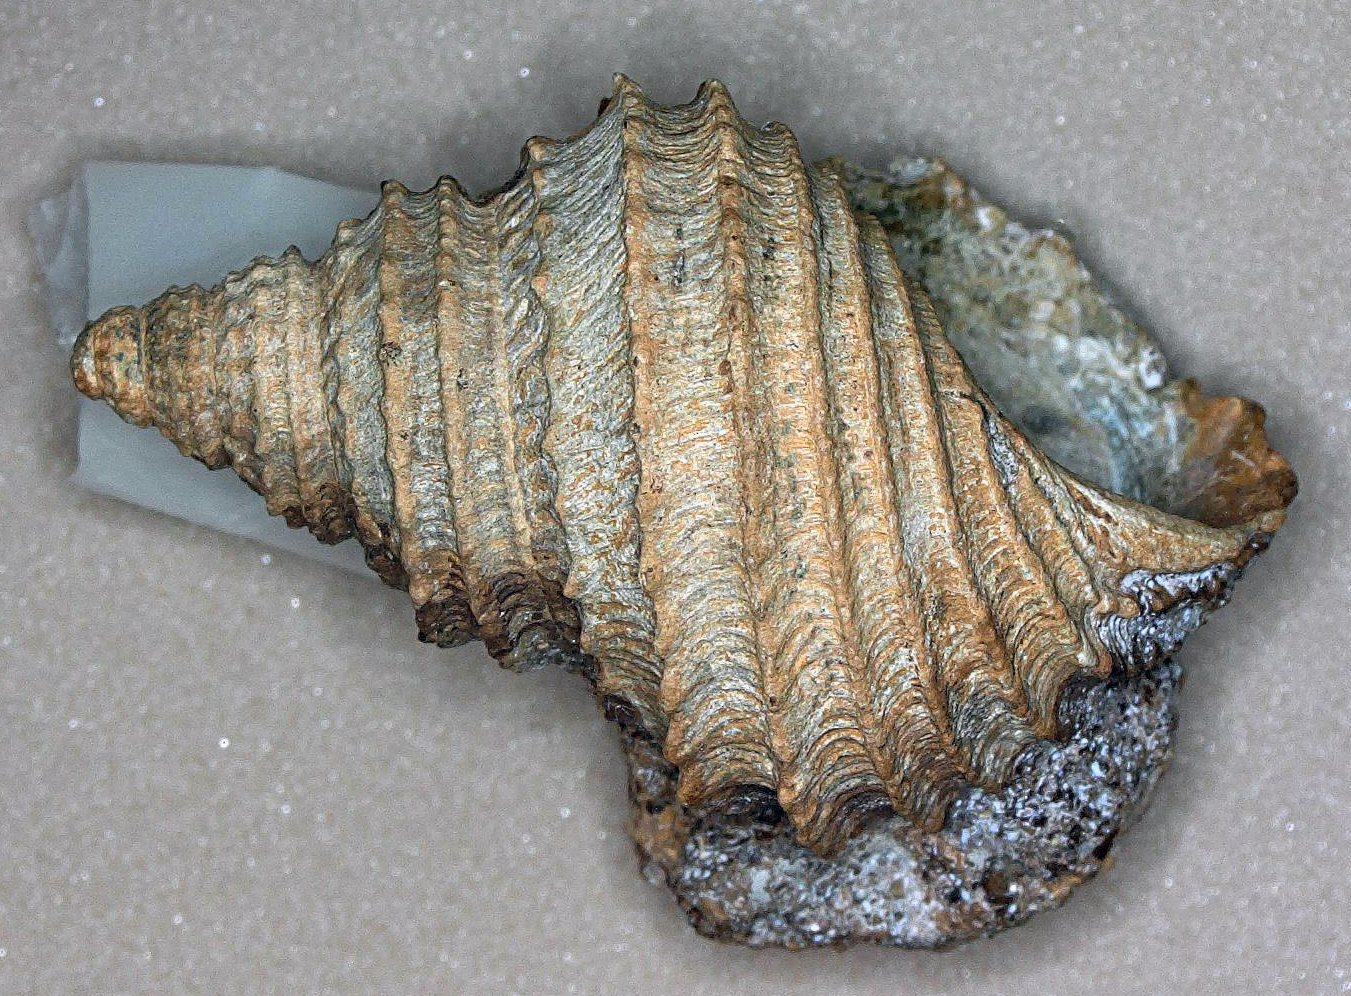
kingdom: Animalia
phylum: Mollusca
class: Gastropoda
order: Seguenziida
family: Eucycloscalidae
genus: Ambercyclus
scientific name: Ambercyclus Turbo ornatus
